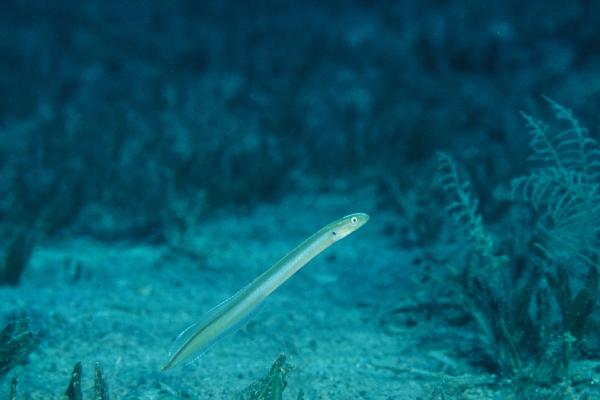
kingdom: Animalia
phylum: Chordata
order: Perciformes
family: Microdesmidae
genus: Gunnellichthys
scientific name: Gunnellichthys monostigma
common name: Onespot wormfish
